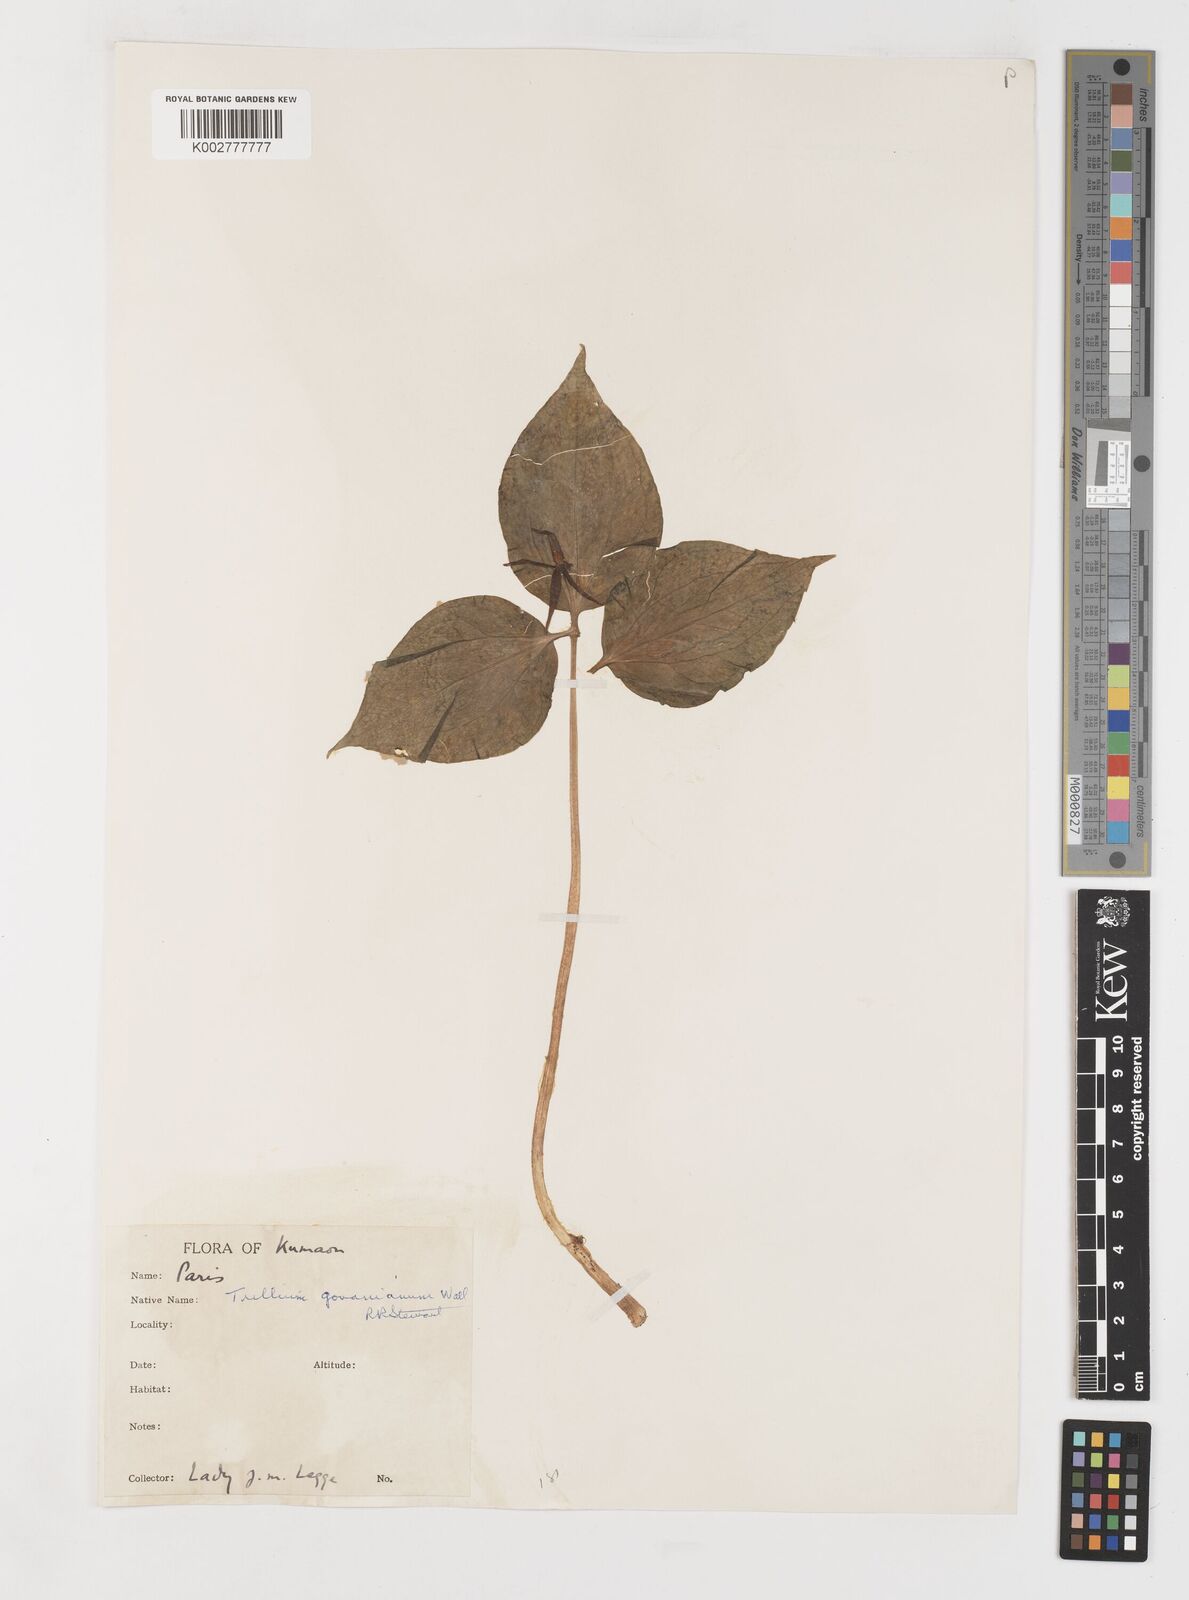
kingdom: Plantae
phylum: Tracheophyta
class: Liliopsida
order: Liliales
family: Melanthiaceae
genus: Trillium
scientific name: Trillium govanianum
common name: Himalayan trillium
